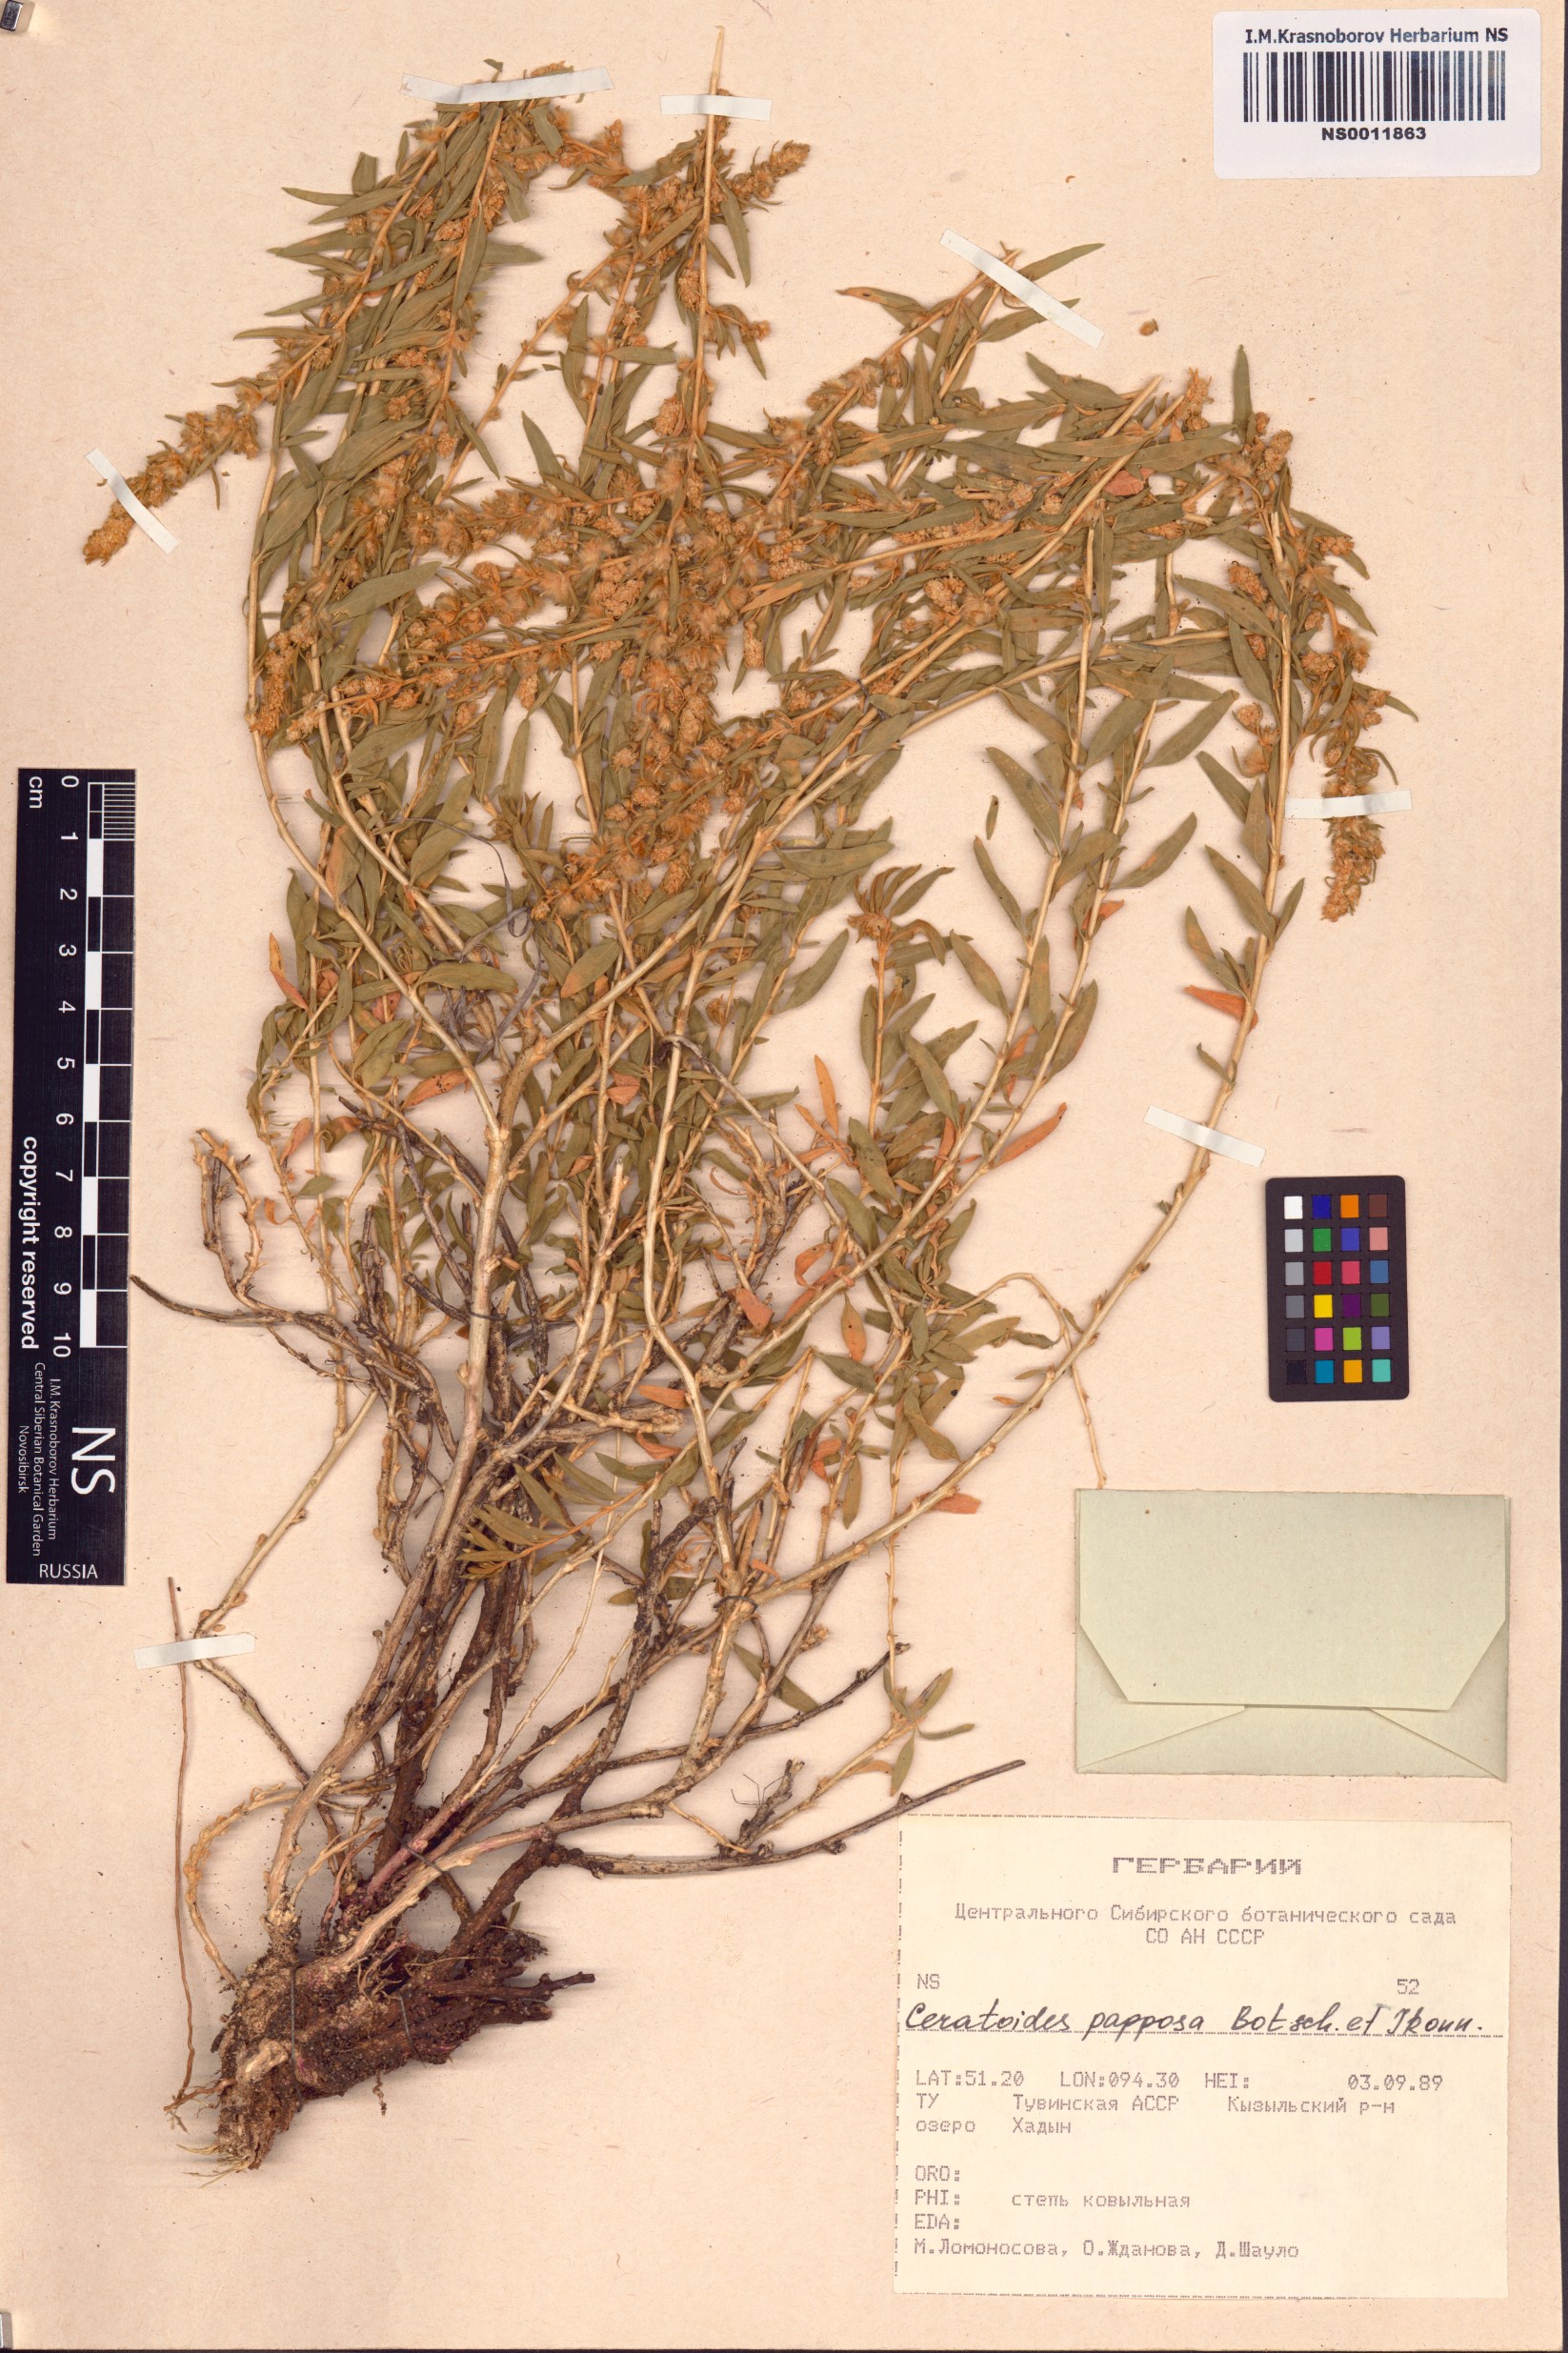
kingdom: Plantae
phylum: Tracheophyta
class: Magnoliopsida
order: Caryophyllales
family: Amaranthaceae
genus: Krascheninnikovia
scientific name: Krascheninnikovia ceratoides
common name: Pamirian winterfat
